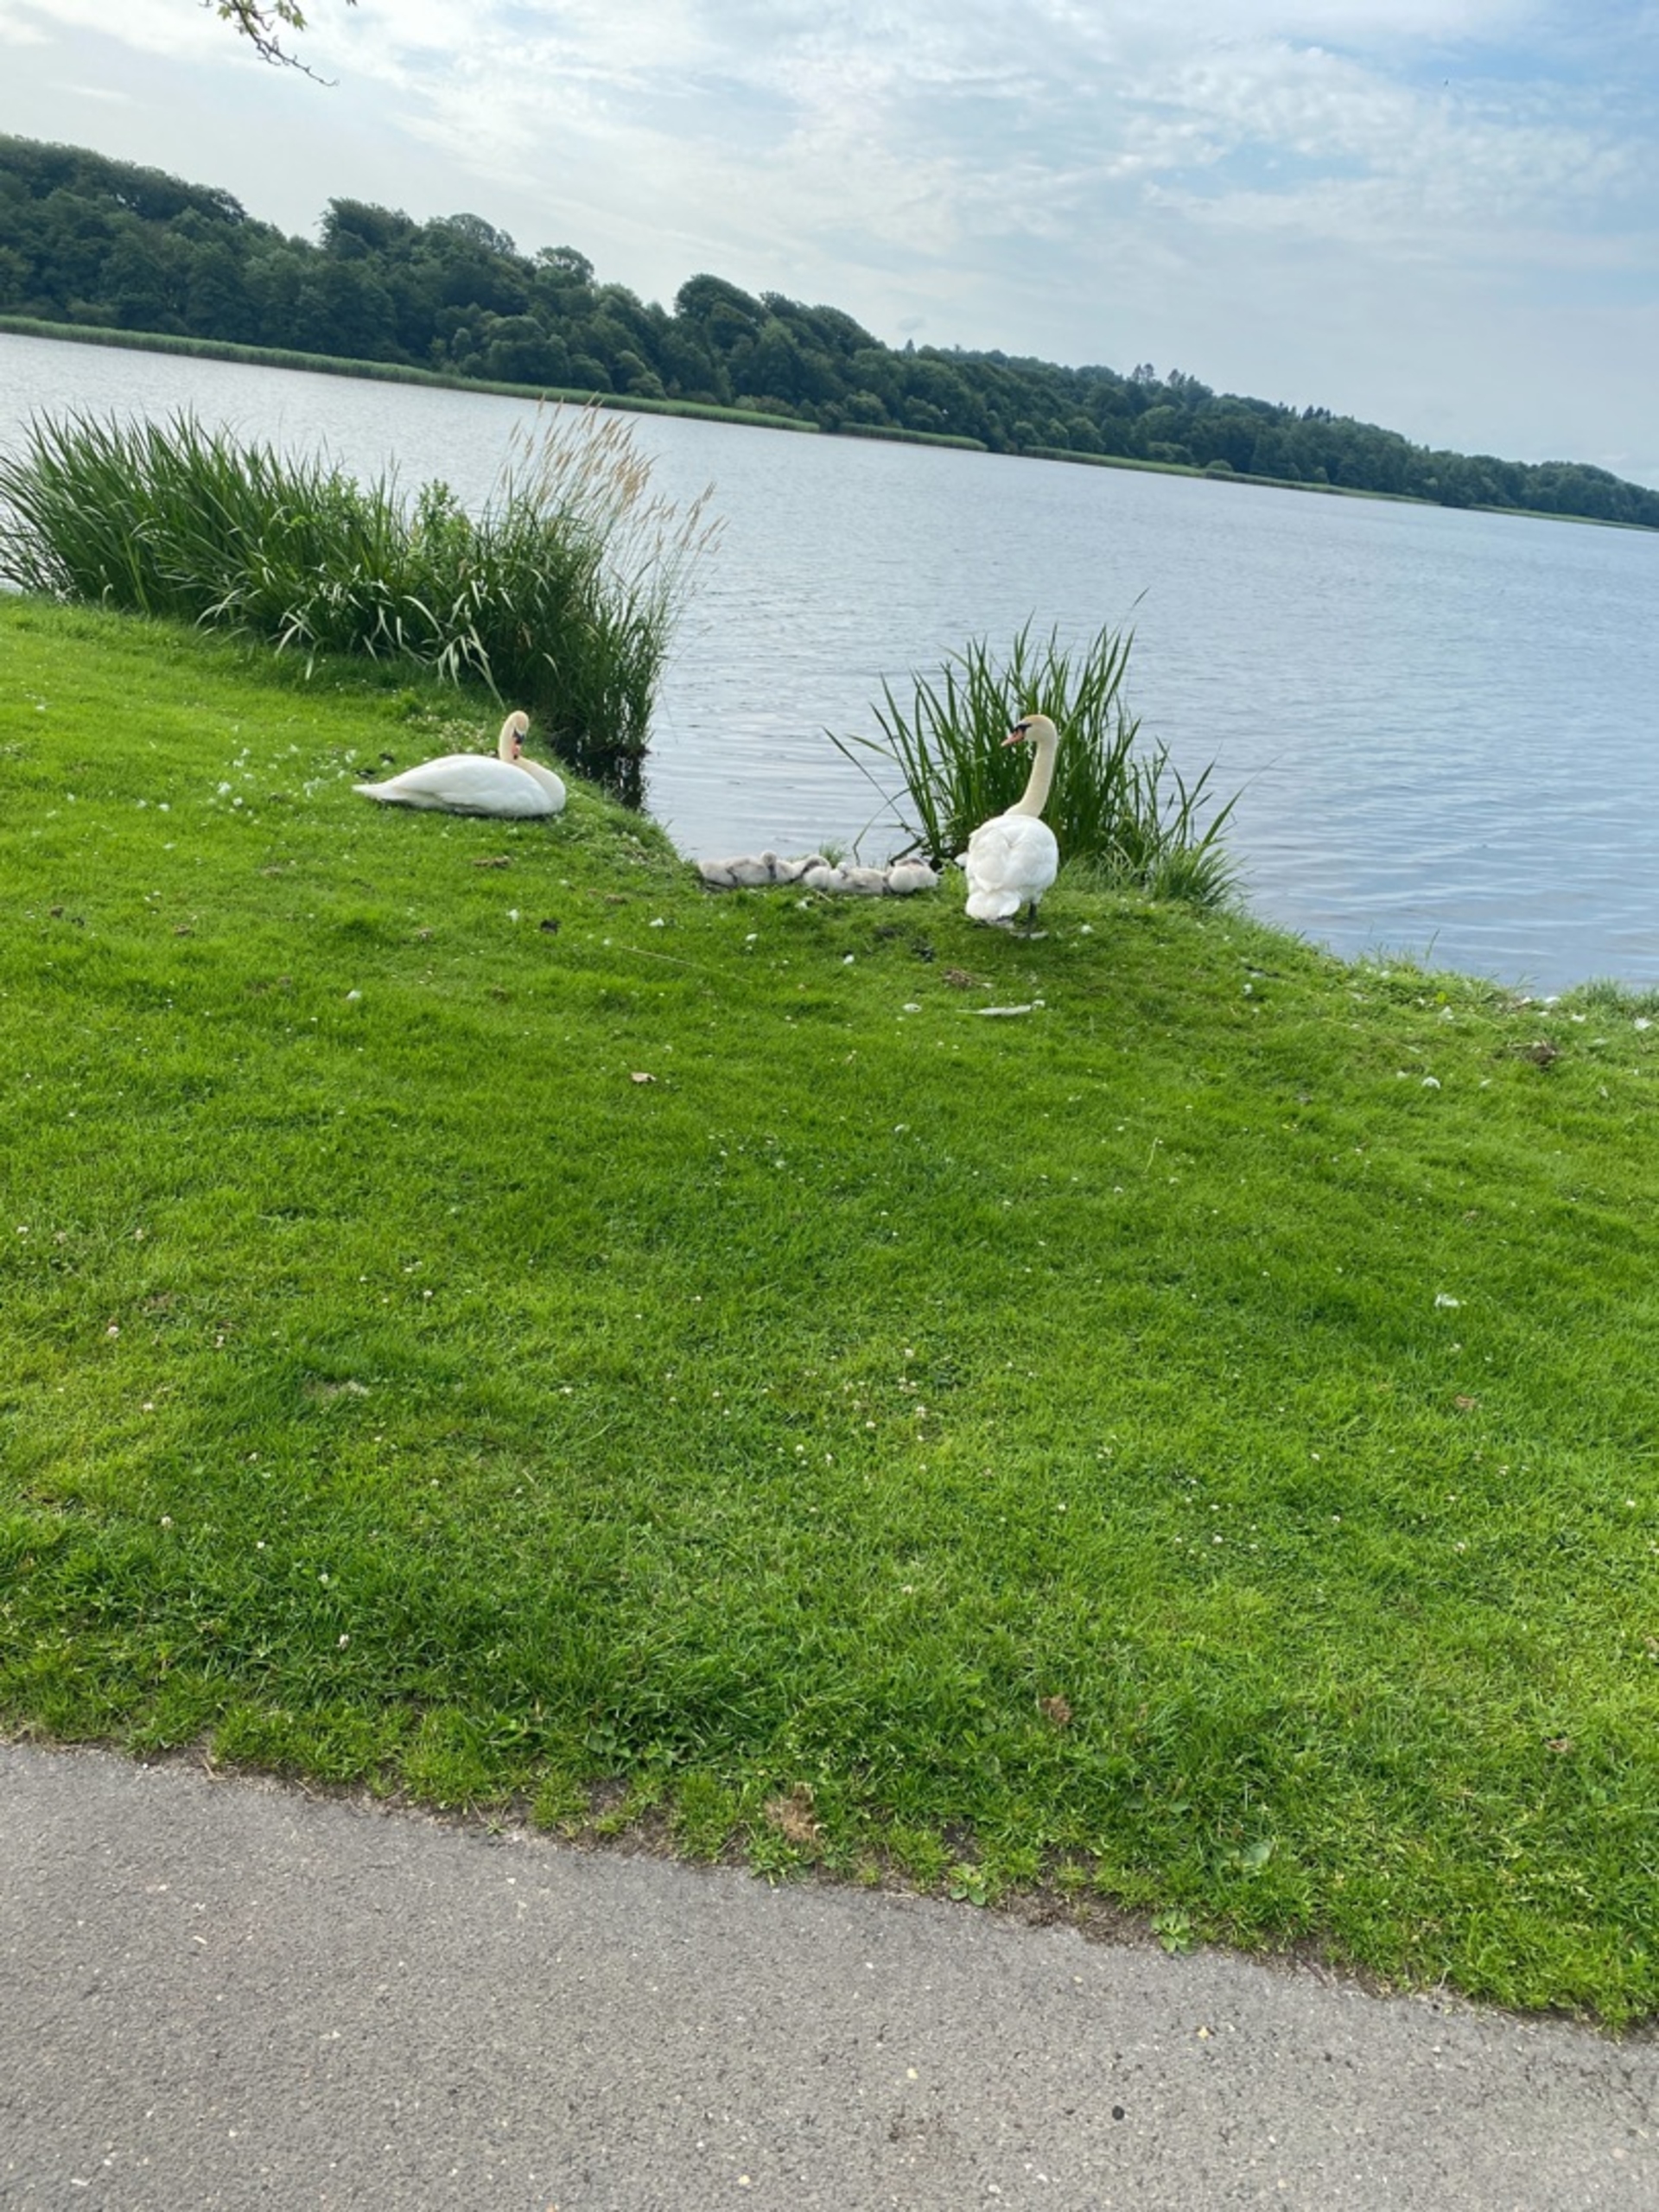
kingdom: Animalia
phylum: Chordata
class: Aves
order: Anseriformes
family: Anatidae
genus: Cygnus
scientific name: Cygnus olor
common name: Knopsvane
